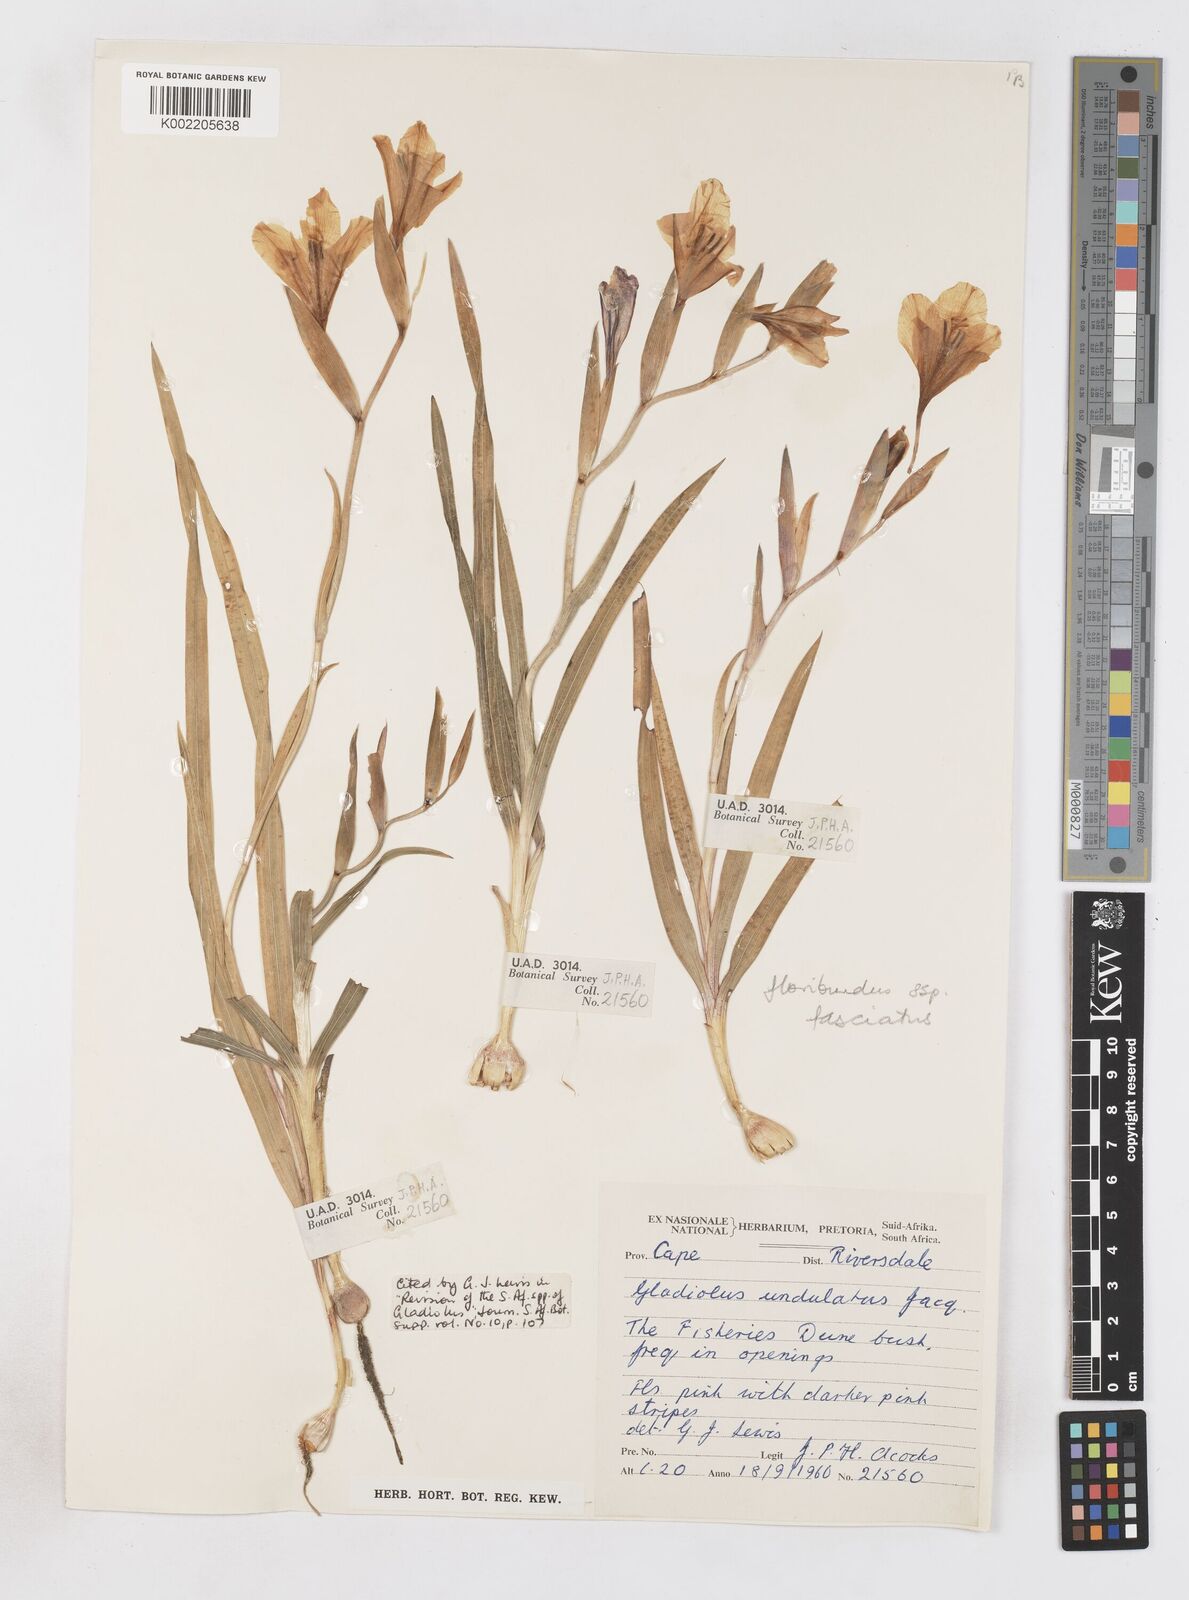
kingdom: Plantae
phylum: Tracheophyta
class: Liliopsida
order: Asparagales
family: Iridaceae
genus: Gladiolus
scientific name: Gladiolus grandiflorus
